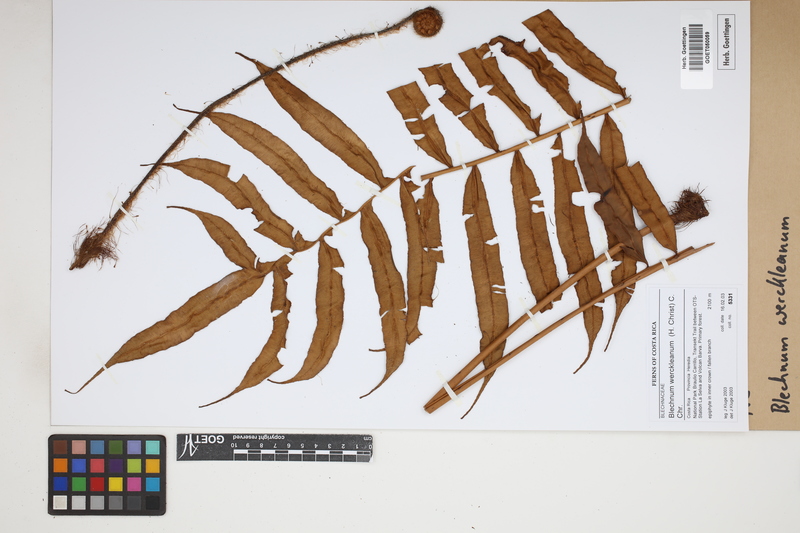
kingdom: Plantae
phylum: Tracheophyta
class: Polypodiopsida
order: Polypodiales
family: Blechnaceae
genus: Lomariocycas
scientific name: Lomariocycas werckleana
